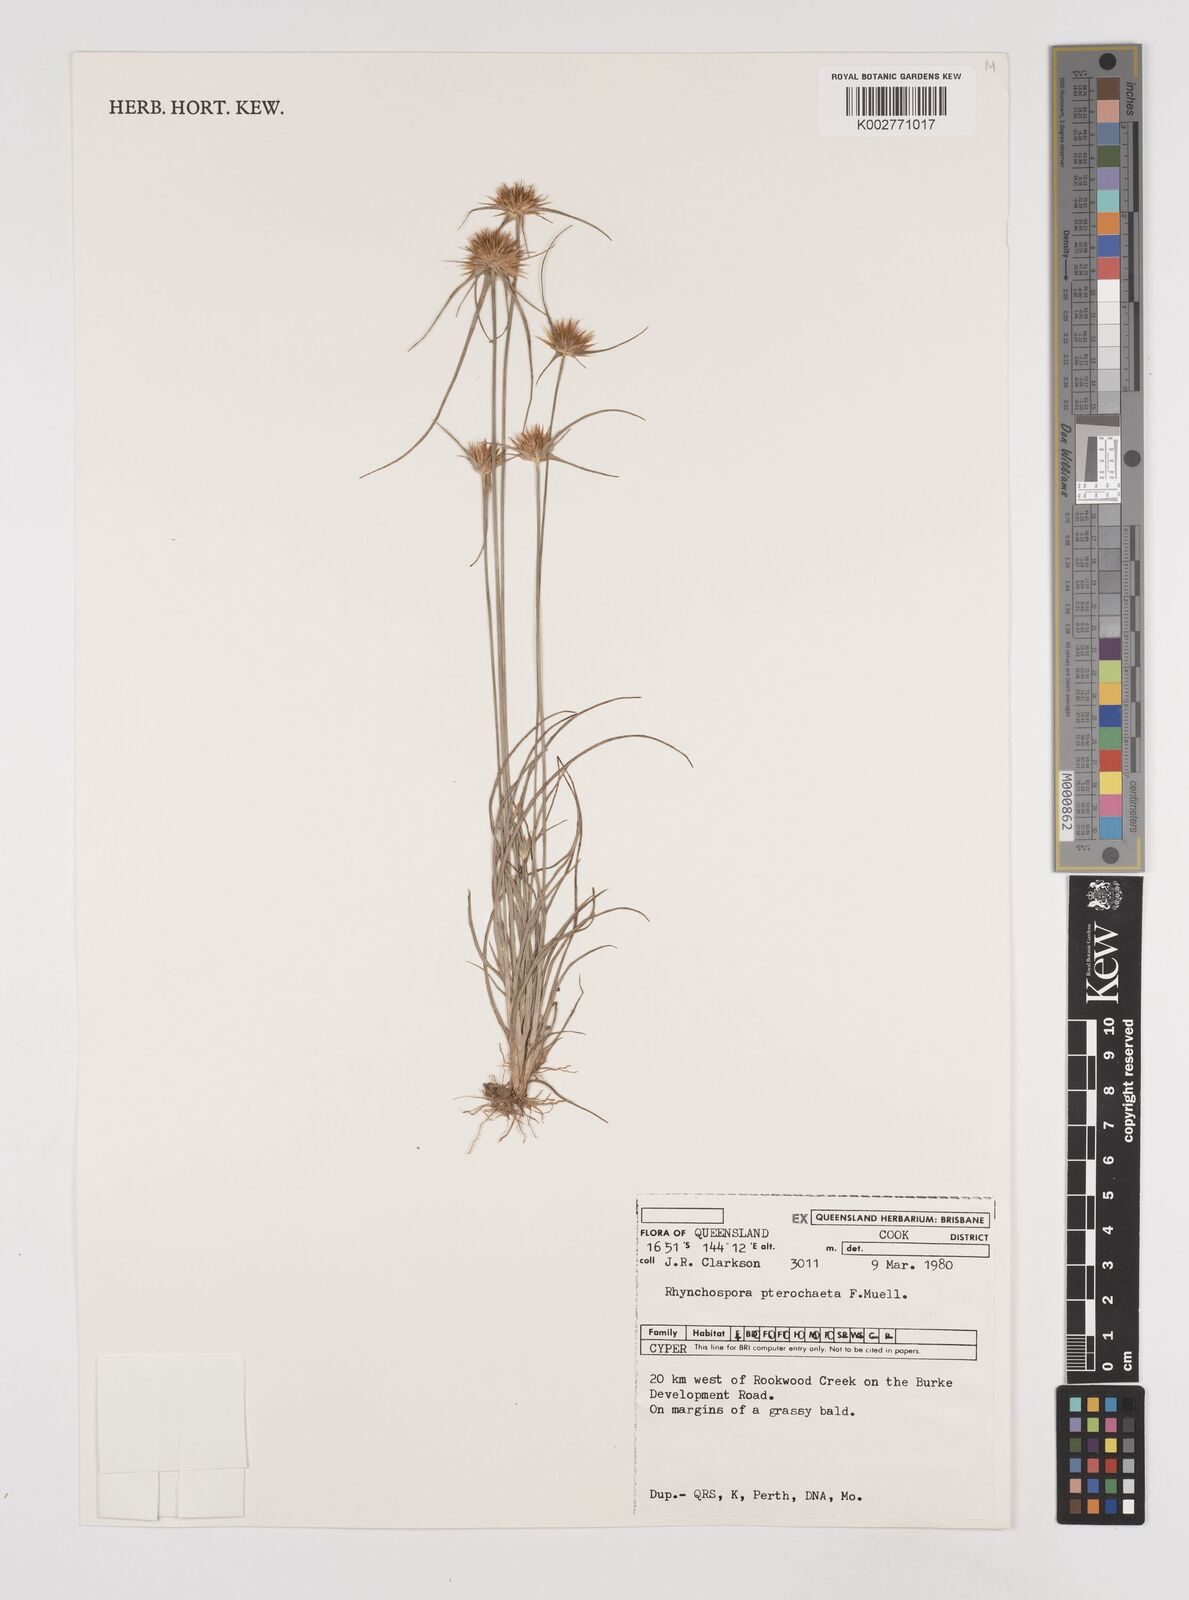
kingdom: Plantae
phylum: Tracheophyta
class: Liliopsida
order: Poales
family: Cyperaceae
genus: Rhynchospora
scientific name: Rhynchospora pterochaeta
